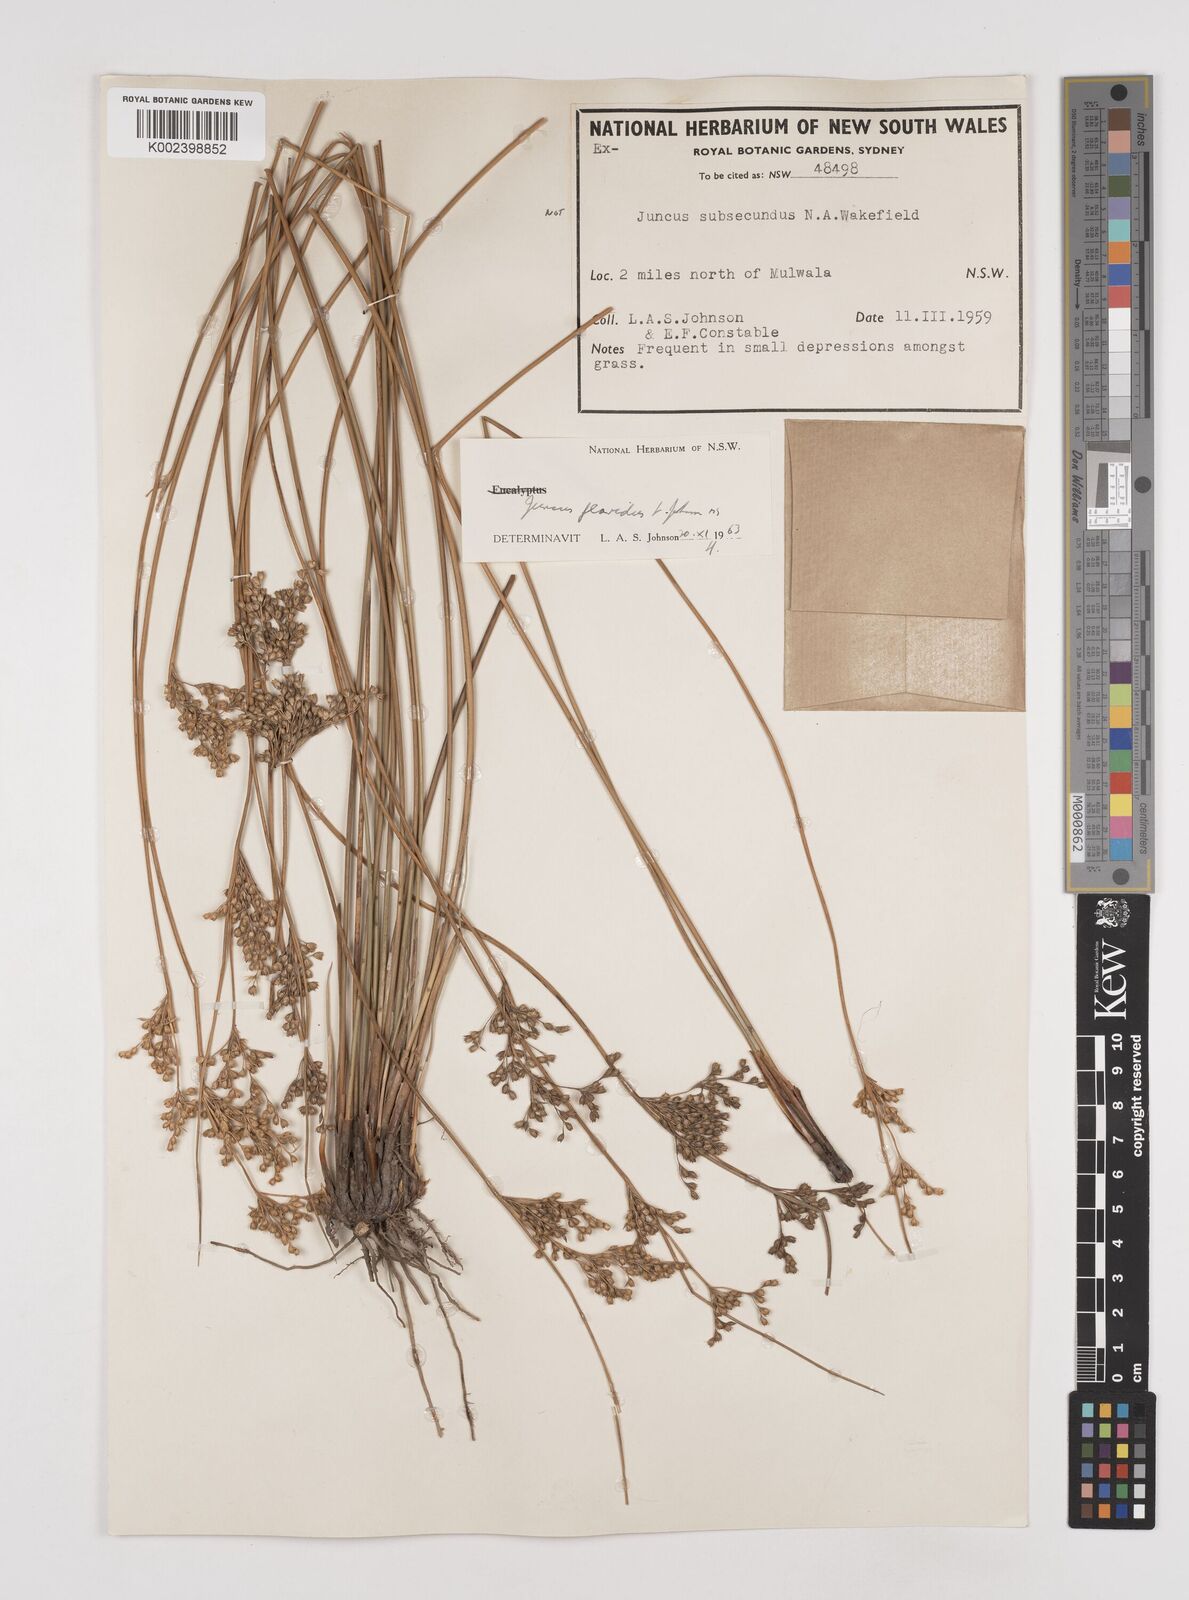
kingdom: Plantae
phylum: Tracheophyta
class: Liliopsida
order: Poales
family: Juncaceae
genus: Juncus
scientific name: Juncus flavidus
